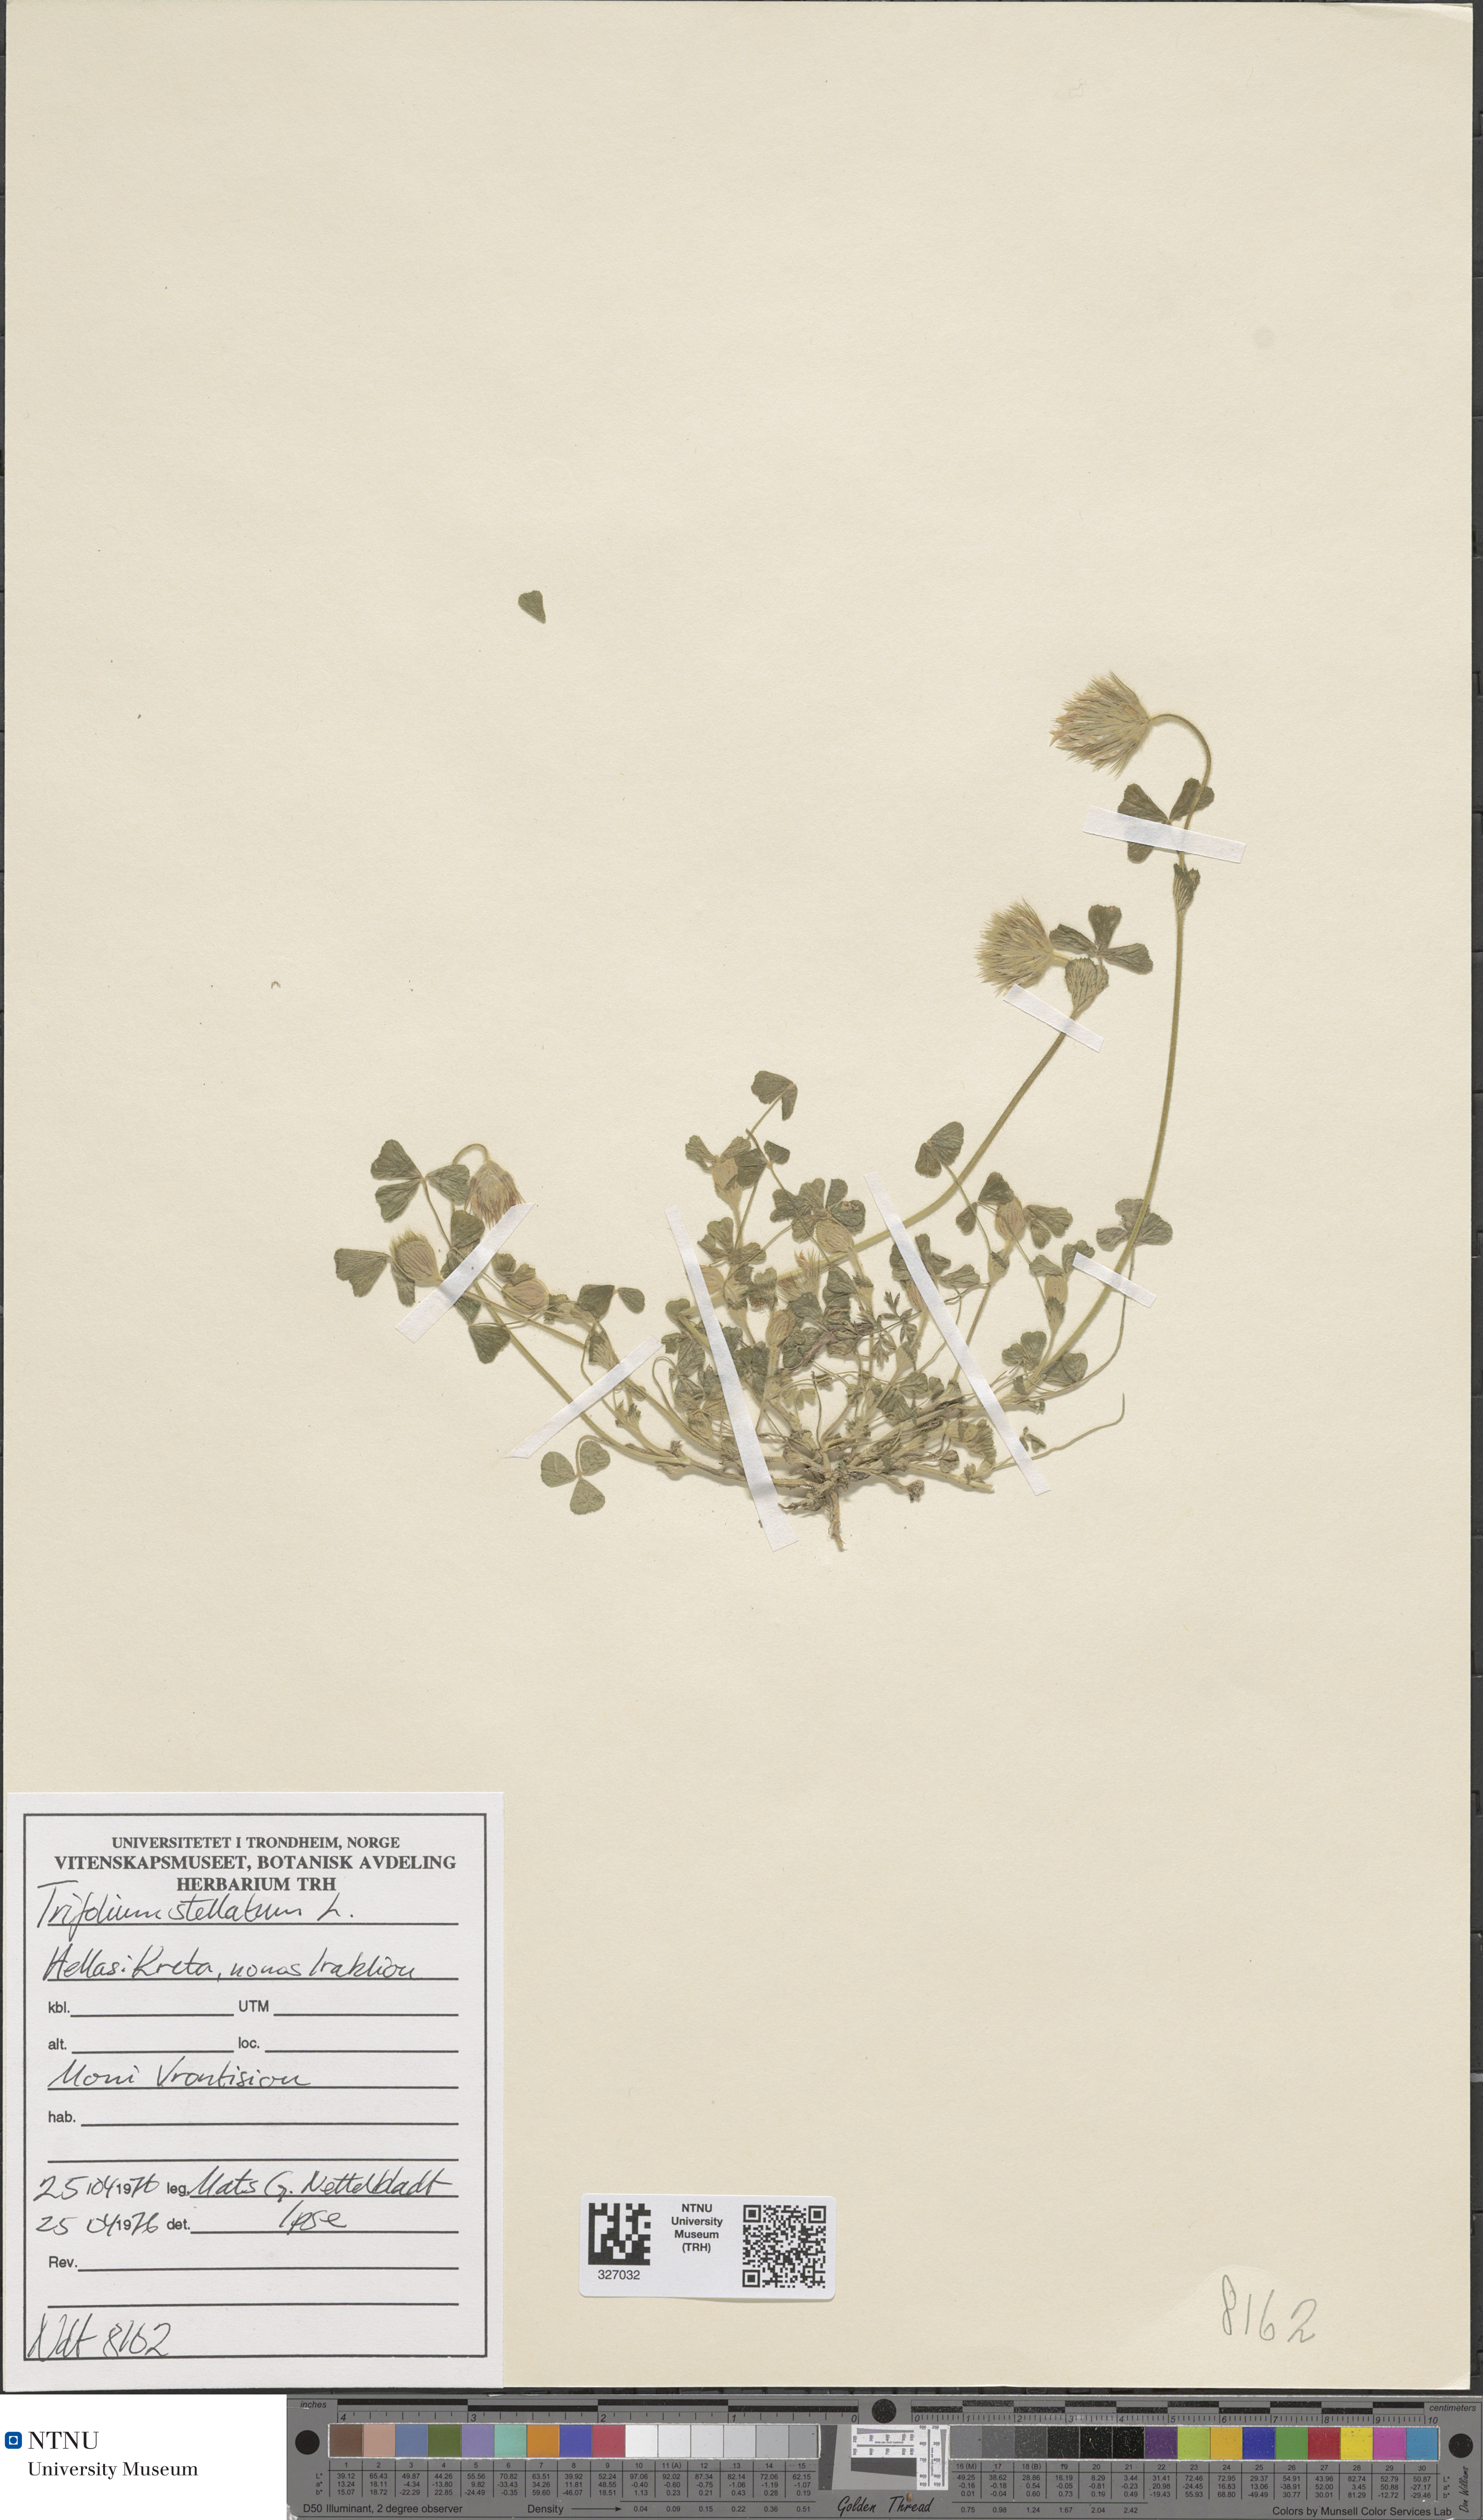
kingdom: Plantae
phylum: Tracheophyta
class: Magnoliopsida
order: Fabales
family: Fabaceae
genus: Trifolium
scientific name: Trifolium stellatum
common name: Starry clover
